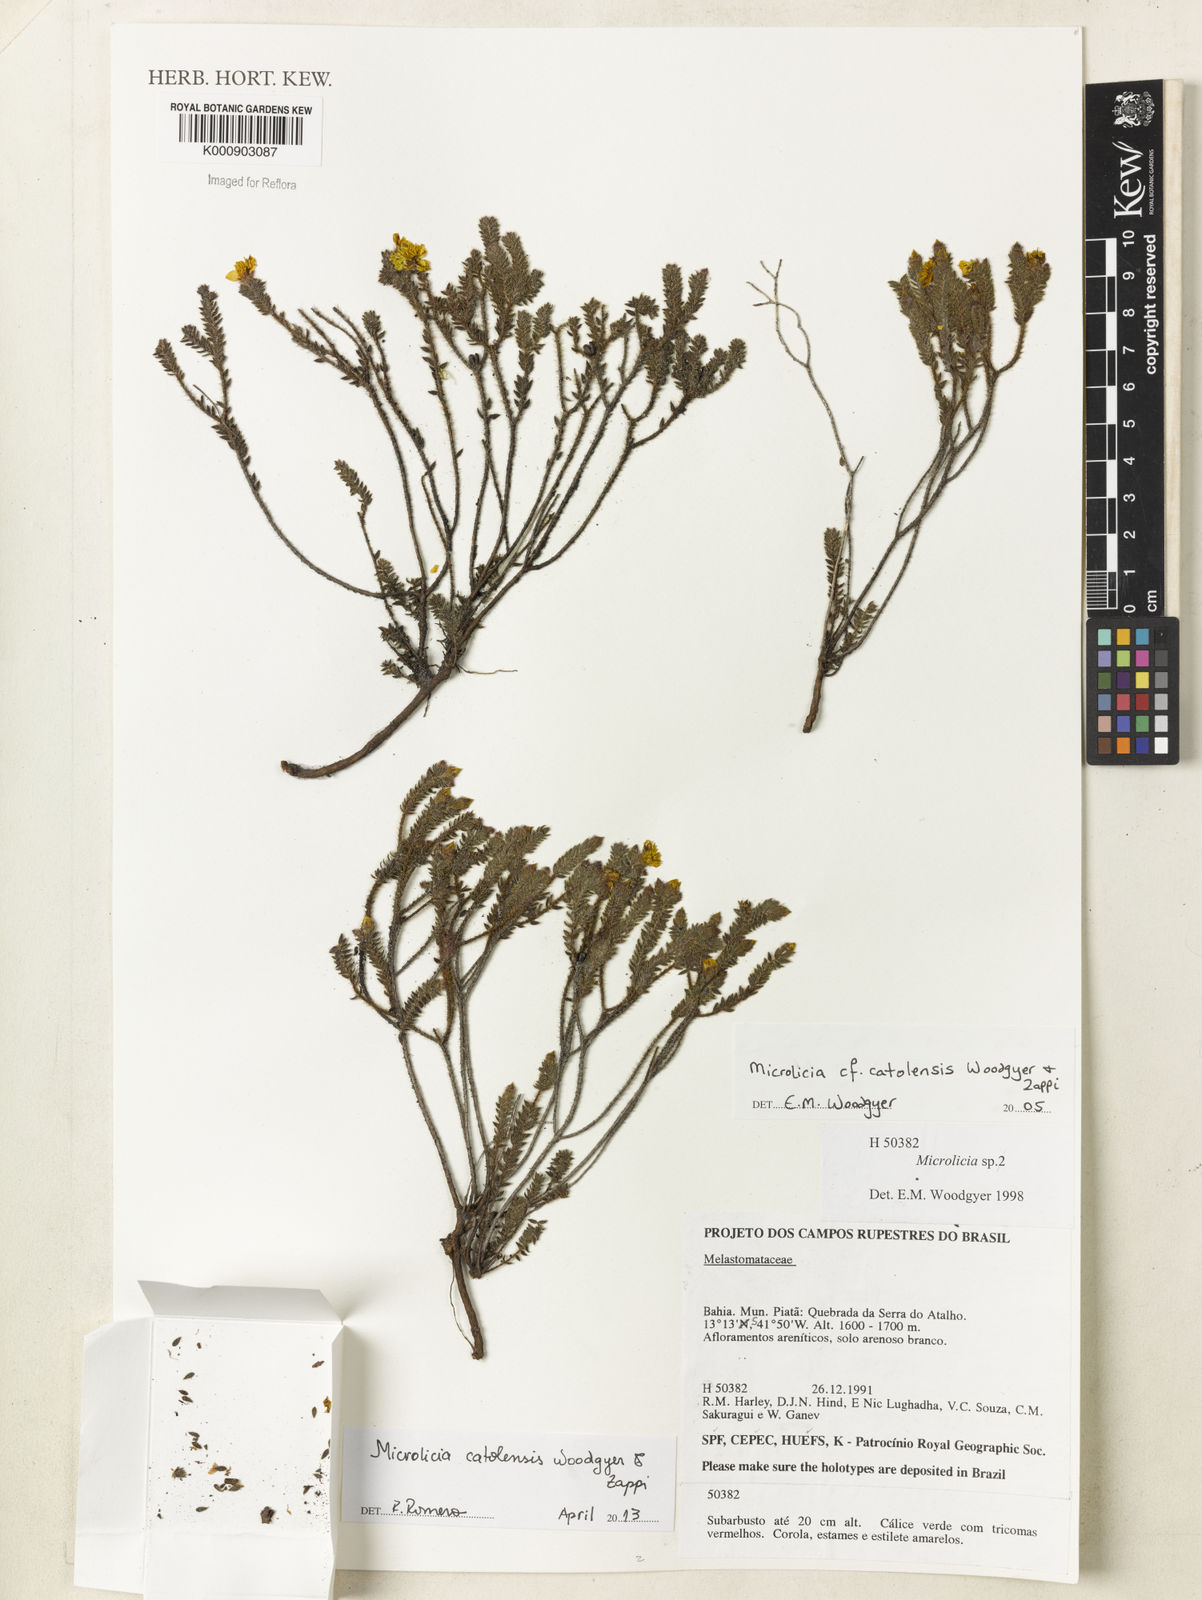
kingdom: Plantae
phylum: Tracheophyta
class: Magnoliopsida
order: Myrtales
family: Melastomataceae
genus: Microlicia
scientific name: Microlicia catolensis
